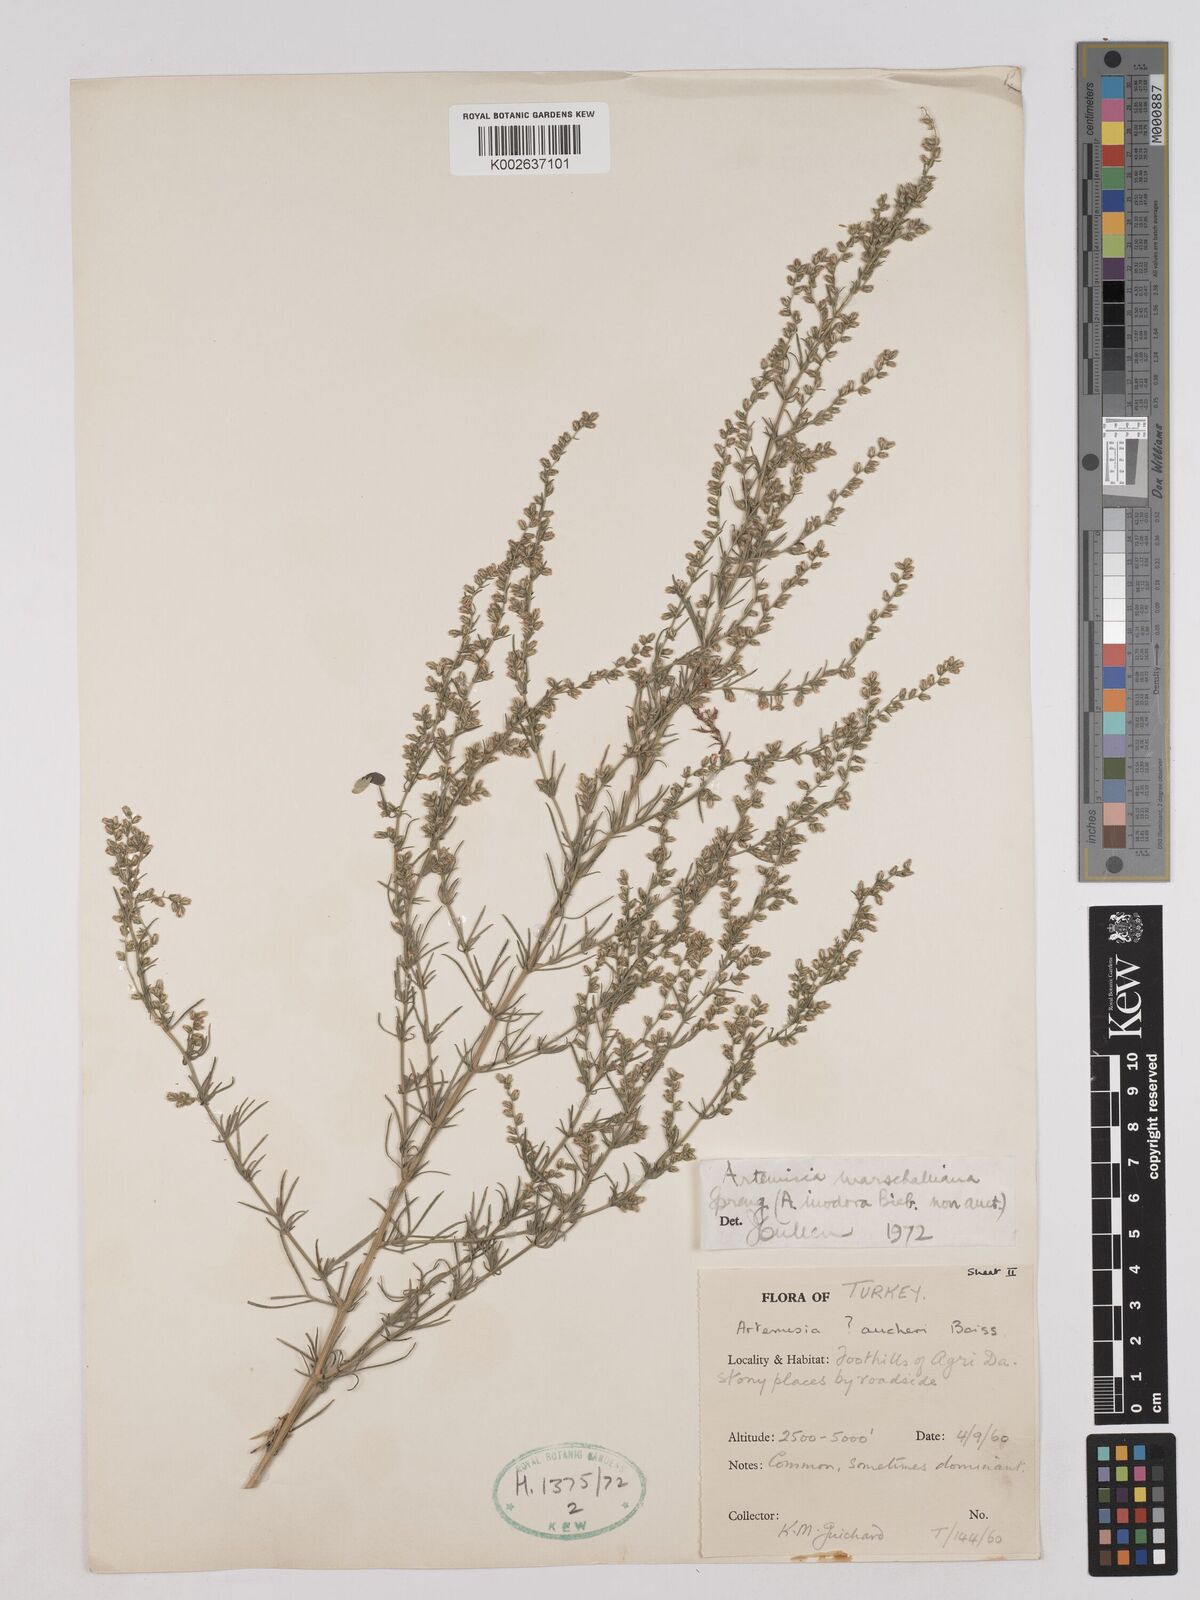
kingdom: Plantae
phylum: Tracheophyta
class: Magnoliopsida
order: Asterales
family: Asteraceae
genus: Artemisia
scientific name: Artemisia marschalliana
